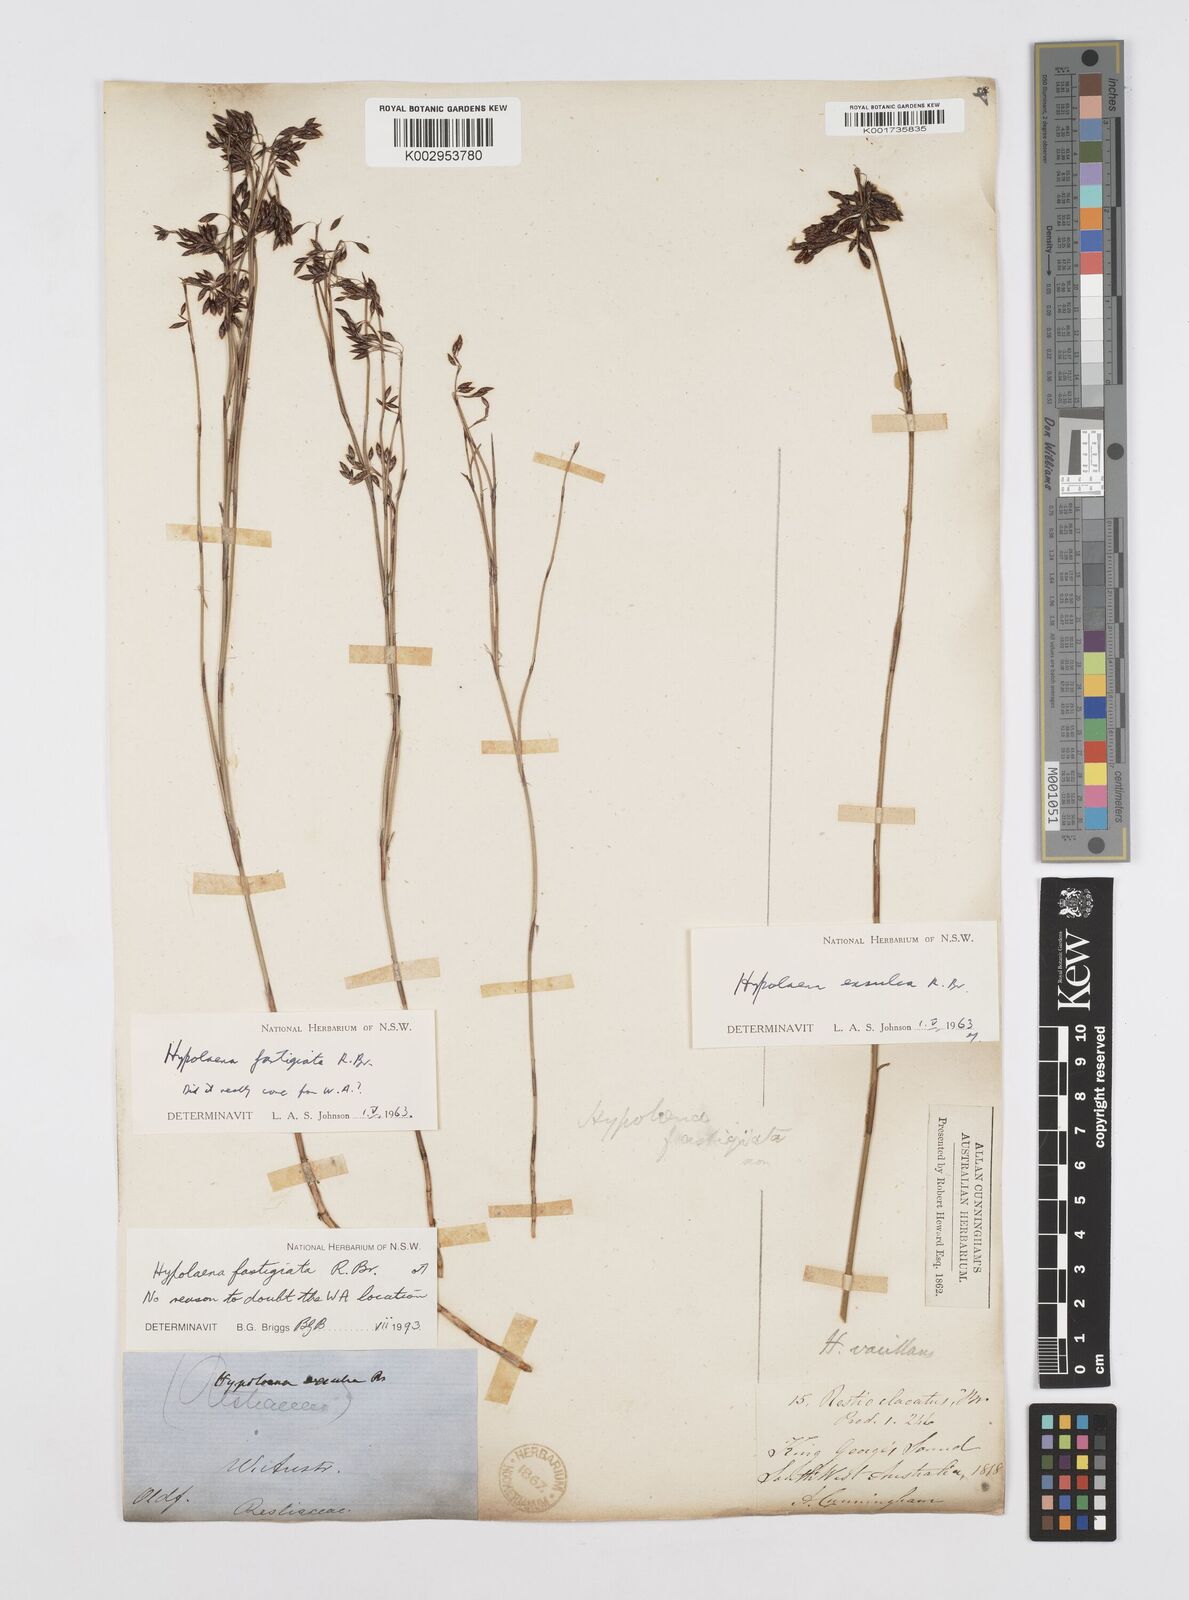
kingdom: Plantae
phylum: Tracheophyta
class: Liliopsida
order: Poales
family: Restionaceae
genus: Hypolaena
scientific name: Hypolaena fastigiata
